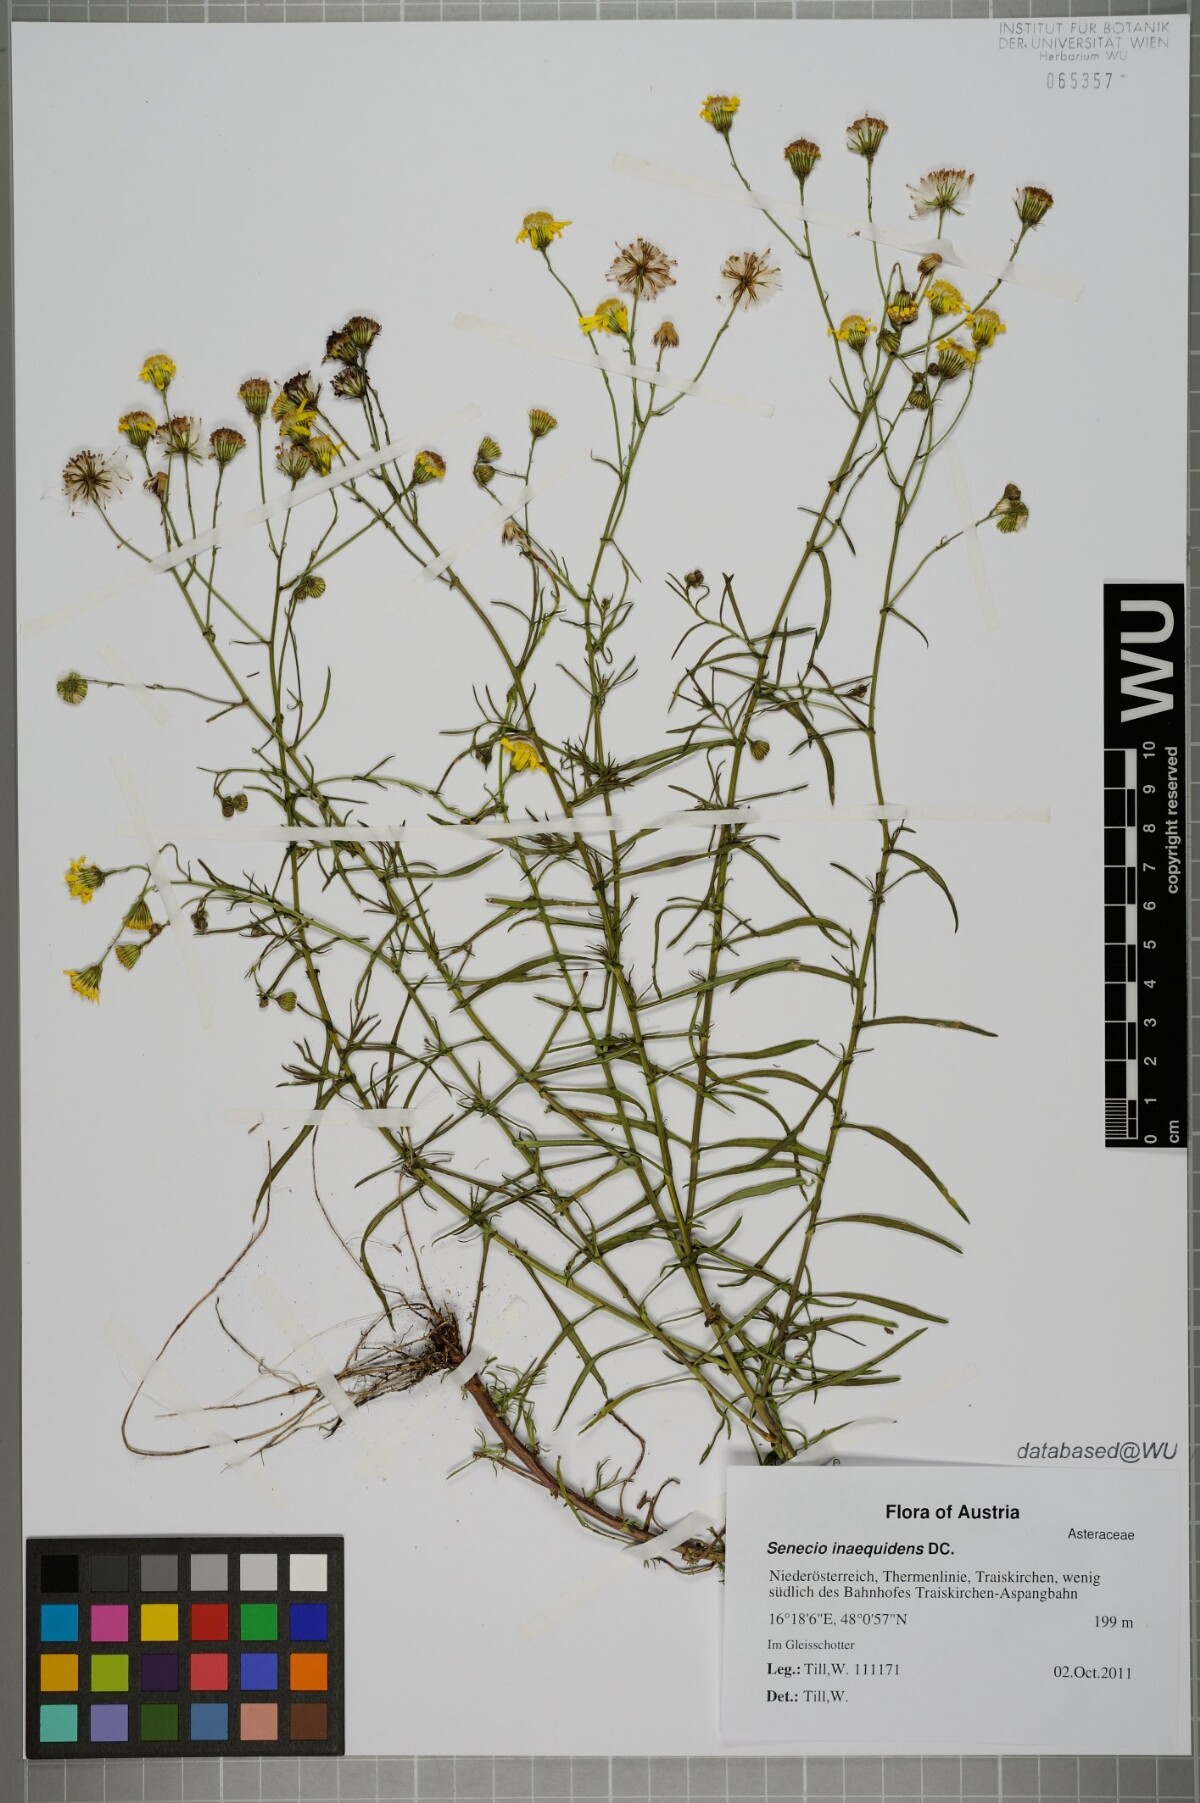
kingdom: Plantae
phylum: Tracheophyta
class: Magnoliopsida
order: Asterales
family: Asteraceae
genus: Senecio
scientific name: Senecio inaequidens
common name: Narrow-leaved ragwort
